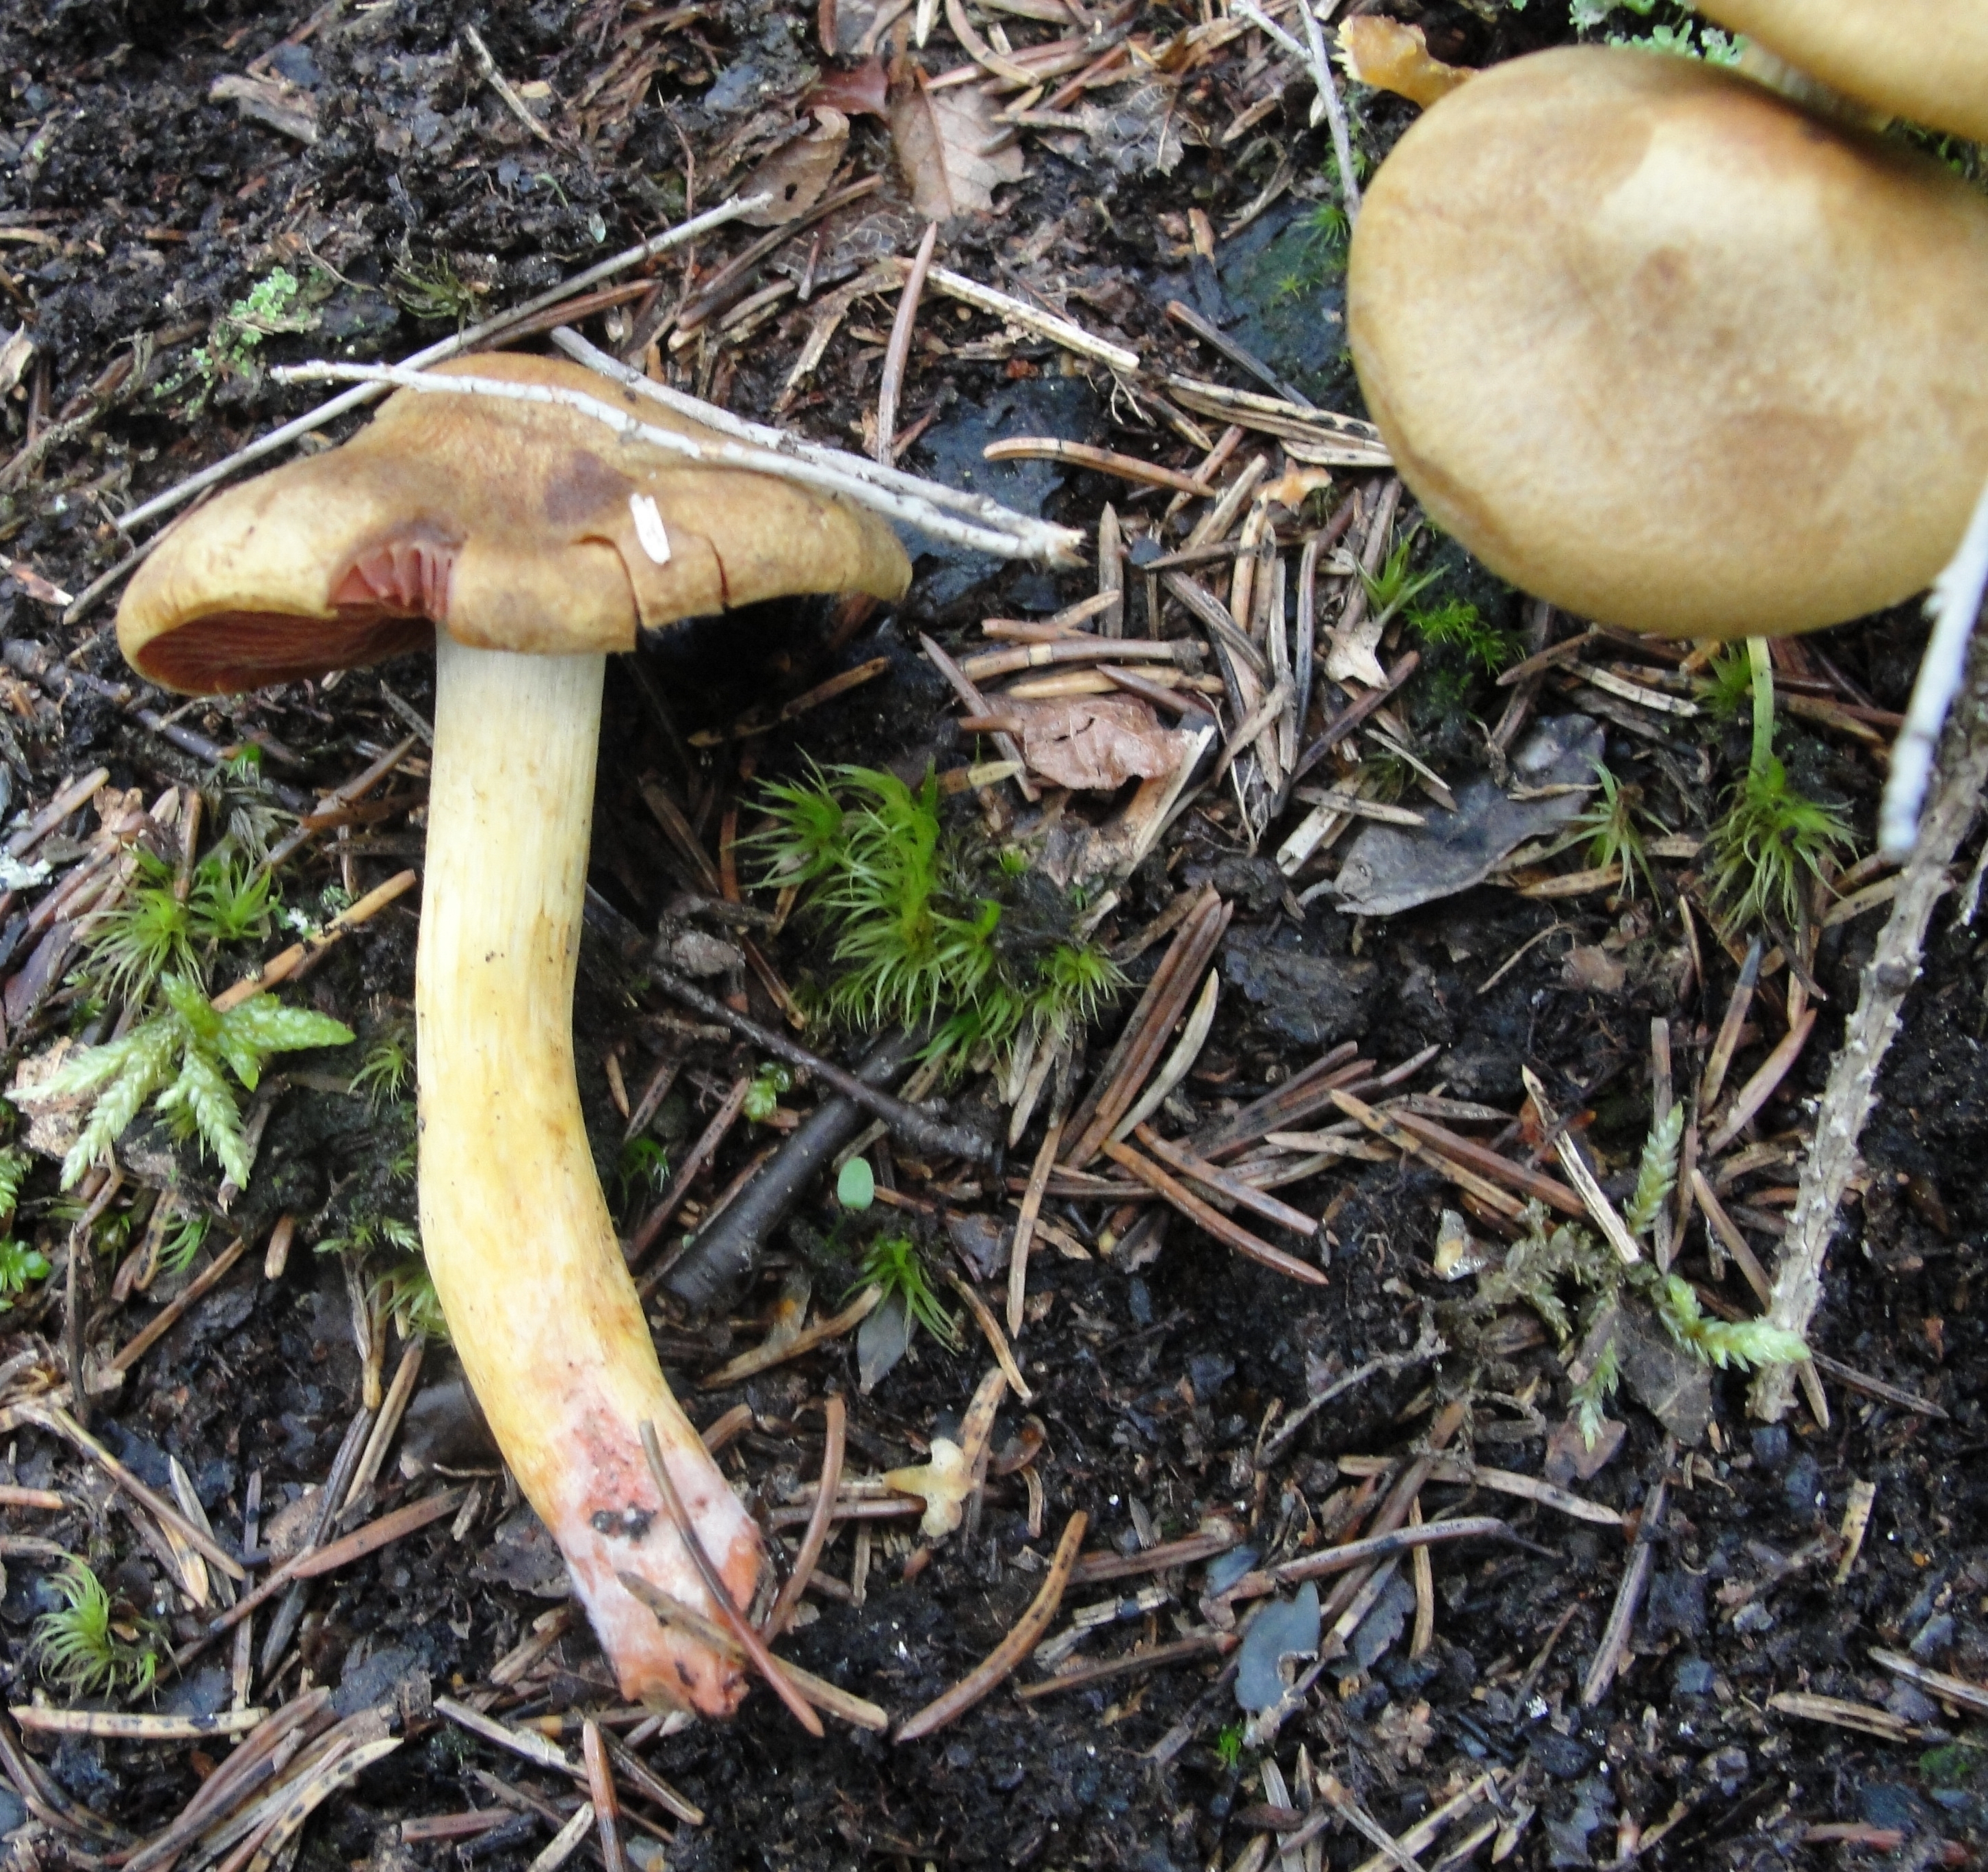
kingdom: Fungi
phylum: Basidiomycota
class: Agaricomycetes
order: Agaricales
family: Cortinariaceae
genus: Cortinarius
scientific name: Cortinarius semisanguineus
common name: Surprise webcap
